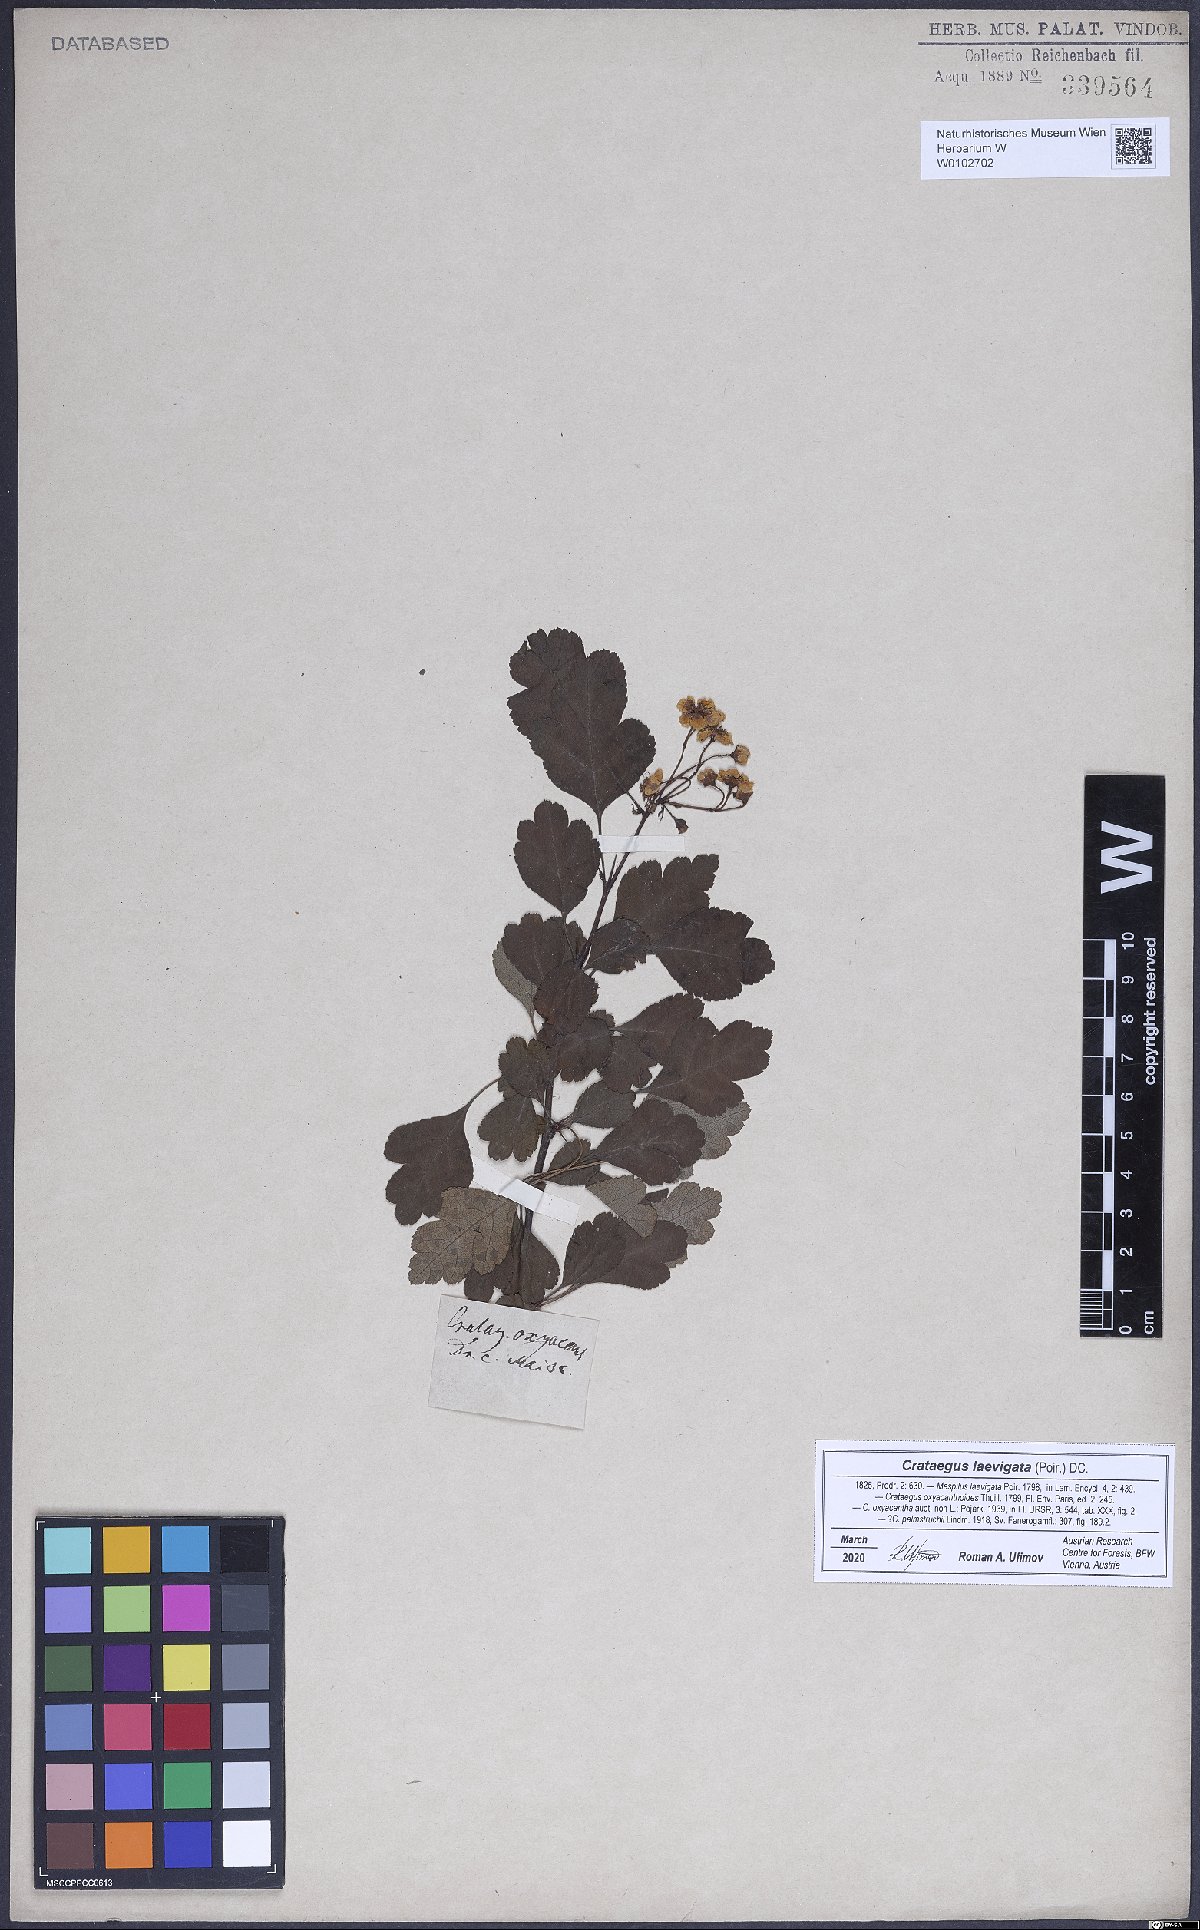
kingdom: Plantae
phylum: Tracheophyta
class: Magnoliopsida
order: Rosales
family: Rosaceae
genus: Crataegus
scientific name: Crataegus laevigata
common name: Midland hawthorn
